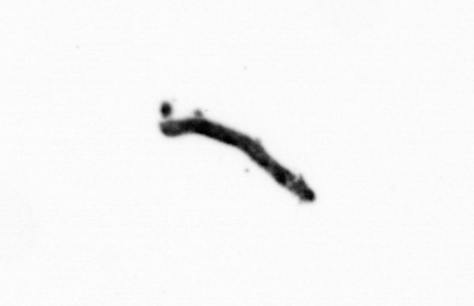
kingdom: Bacteria
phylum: Cyanobacteria
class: Cyanobacteriia
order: Cyanobacteriales
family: Microcoleaceae
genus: Trichodesmium
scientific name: Trichodesmium
